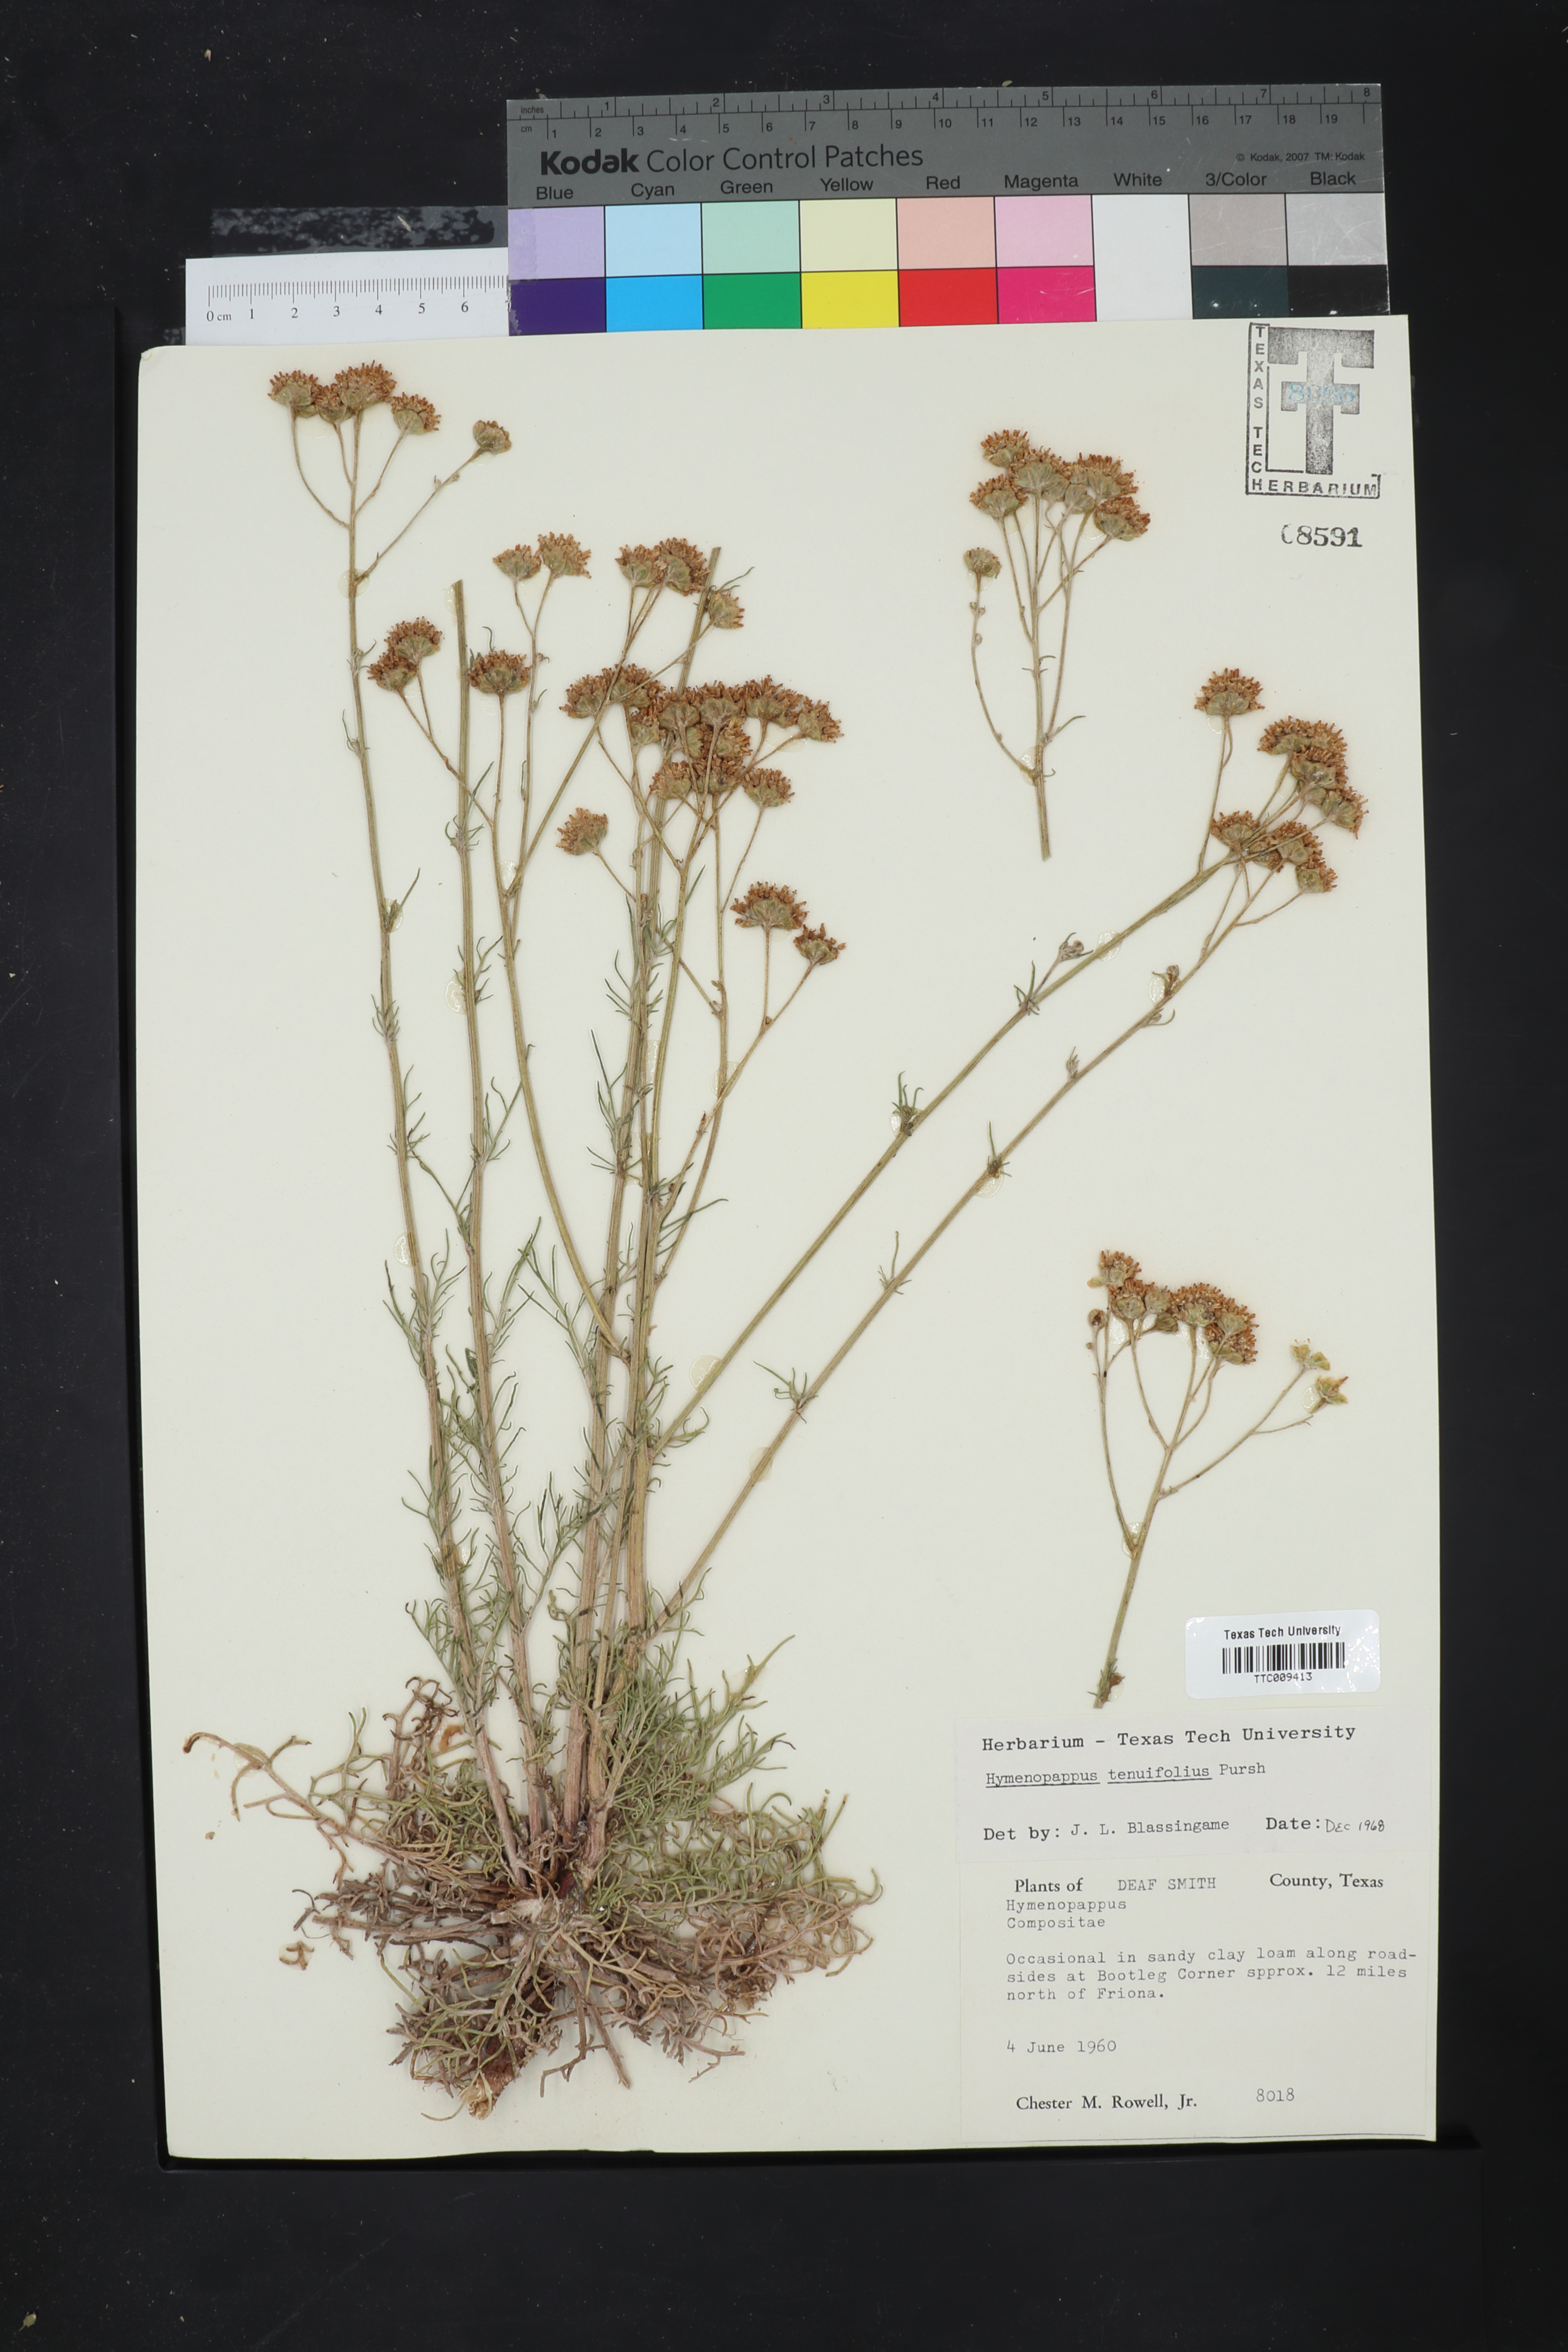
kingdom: Plantae
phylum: Tracheophyta
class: Magnoliopsida
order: Asterales
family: Asteraceae
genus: Hymenopappus
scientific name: Hymenopappus tenuifolius
